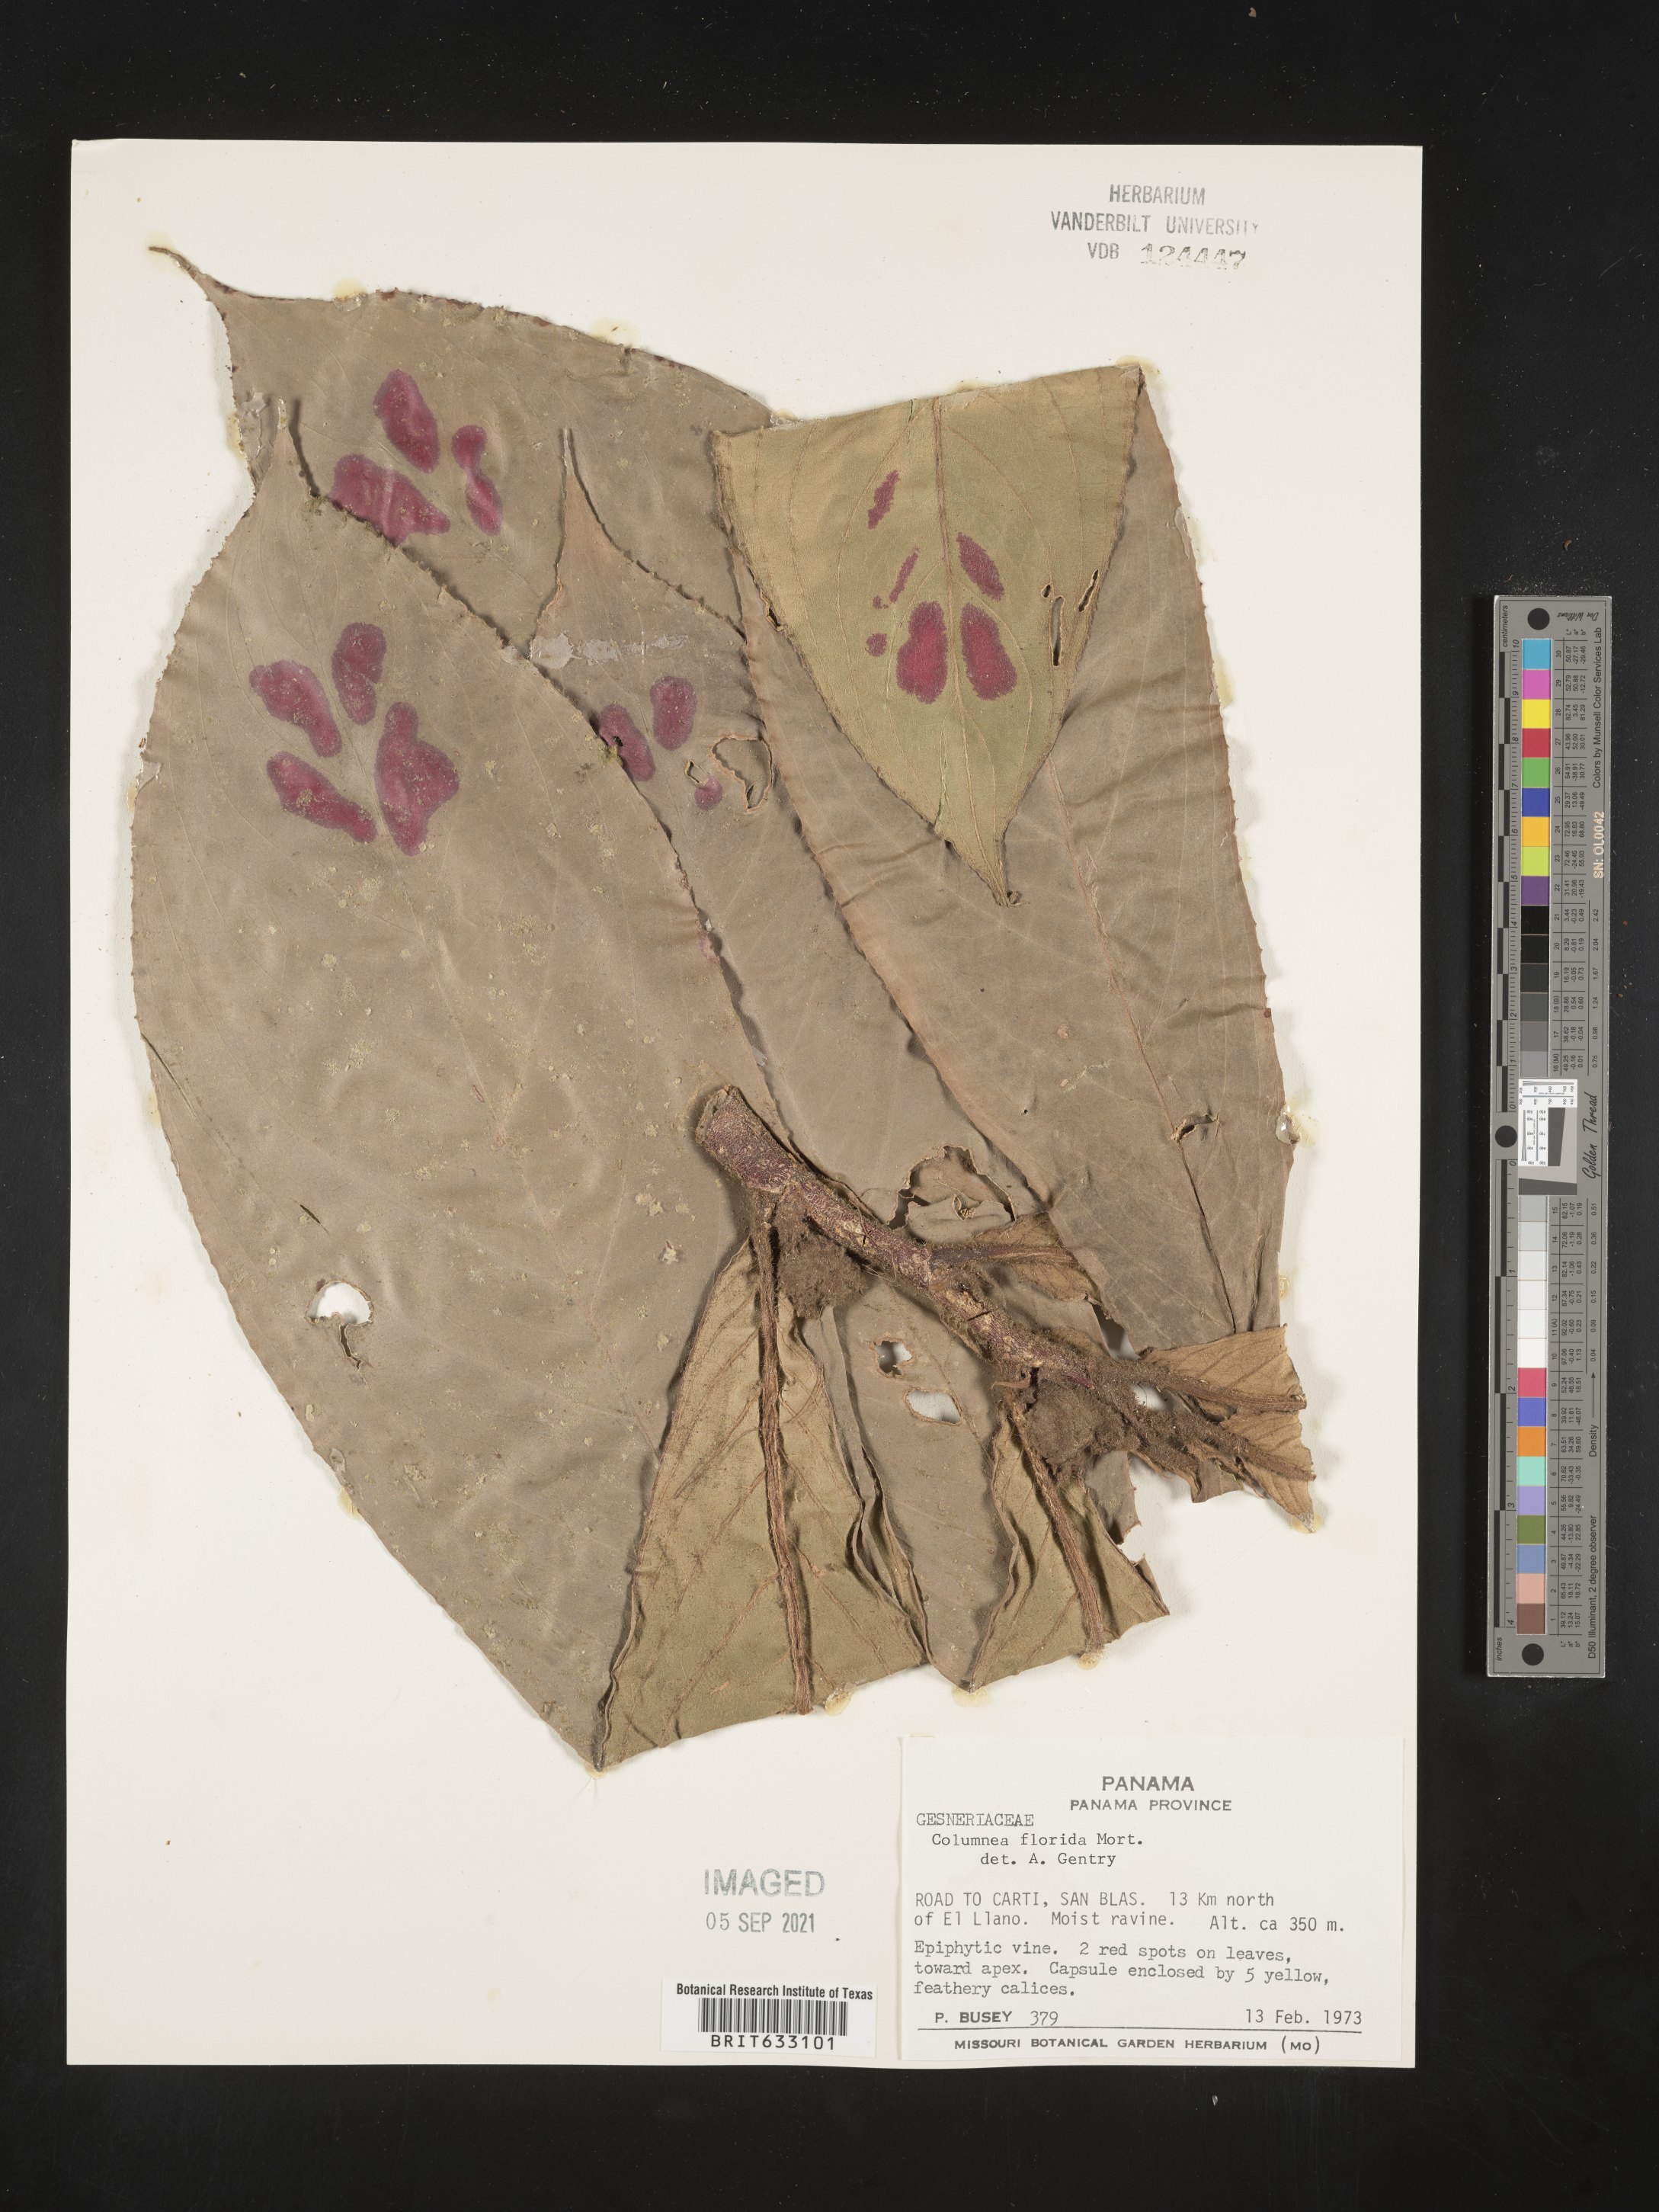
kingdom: Plantae
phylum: Tracheophyta
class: Magnoliopsida
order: Lamiales
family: Gesneriaceae
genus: Columnea
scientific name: Columnea
